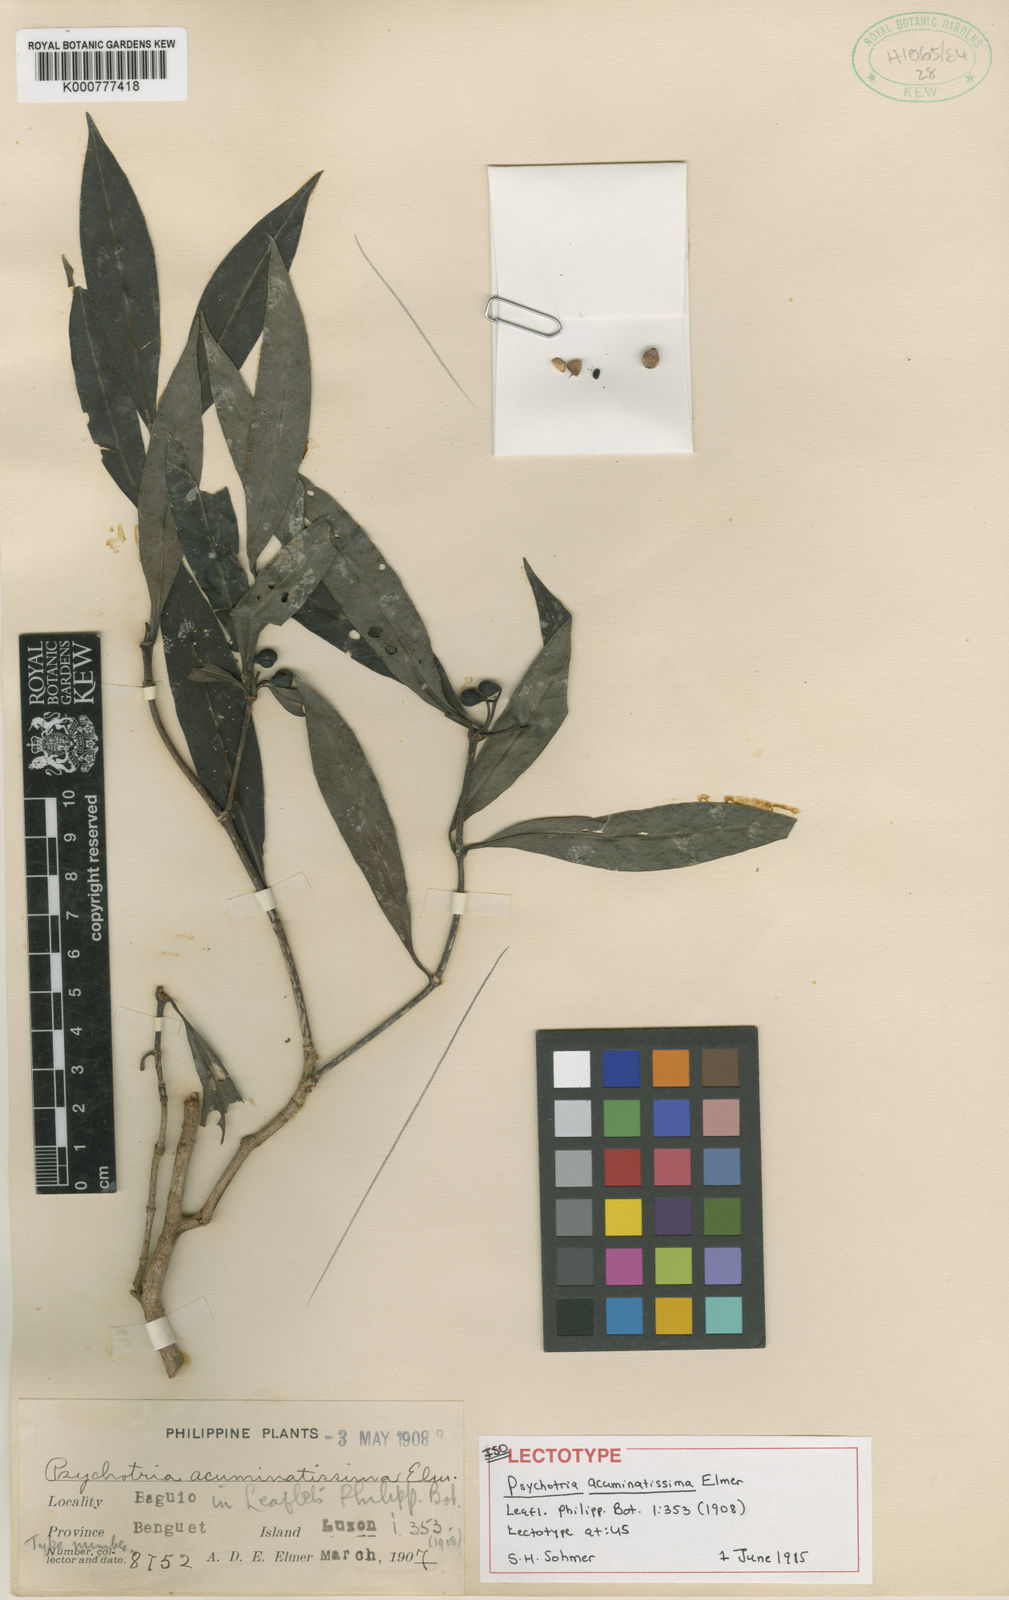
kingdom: Plantae
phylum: Tracheophyta
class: Magnoliopsida
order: Gentianales
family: Rubiaceae
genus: Psychotria
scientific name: Psychotria acuminatissima
